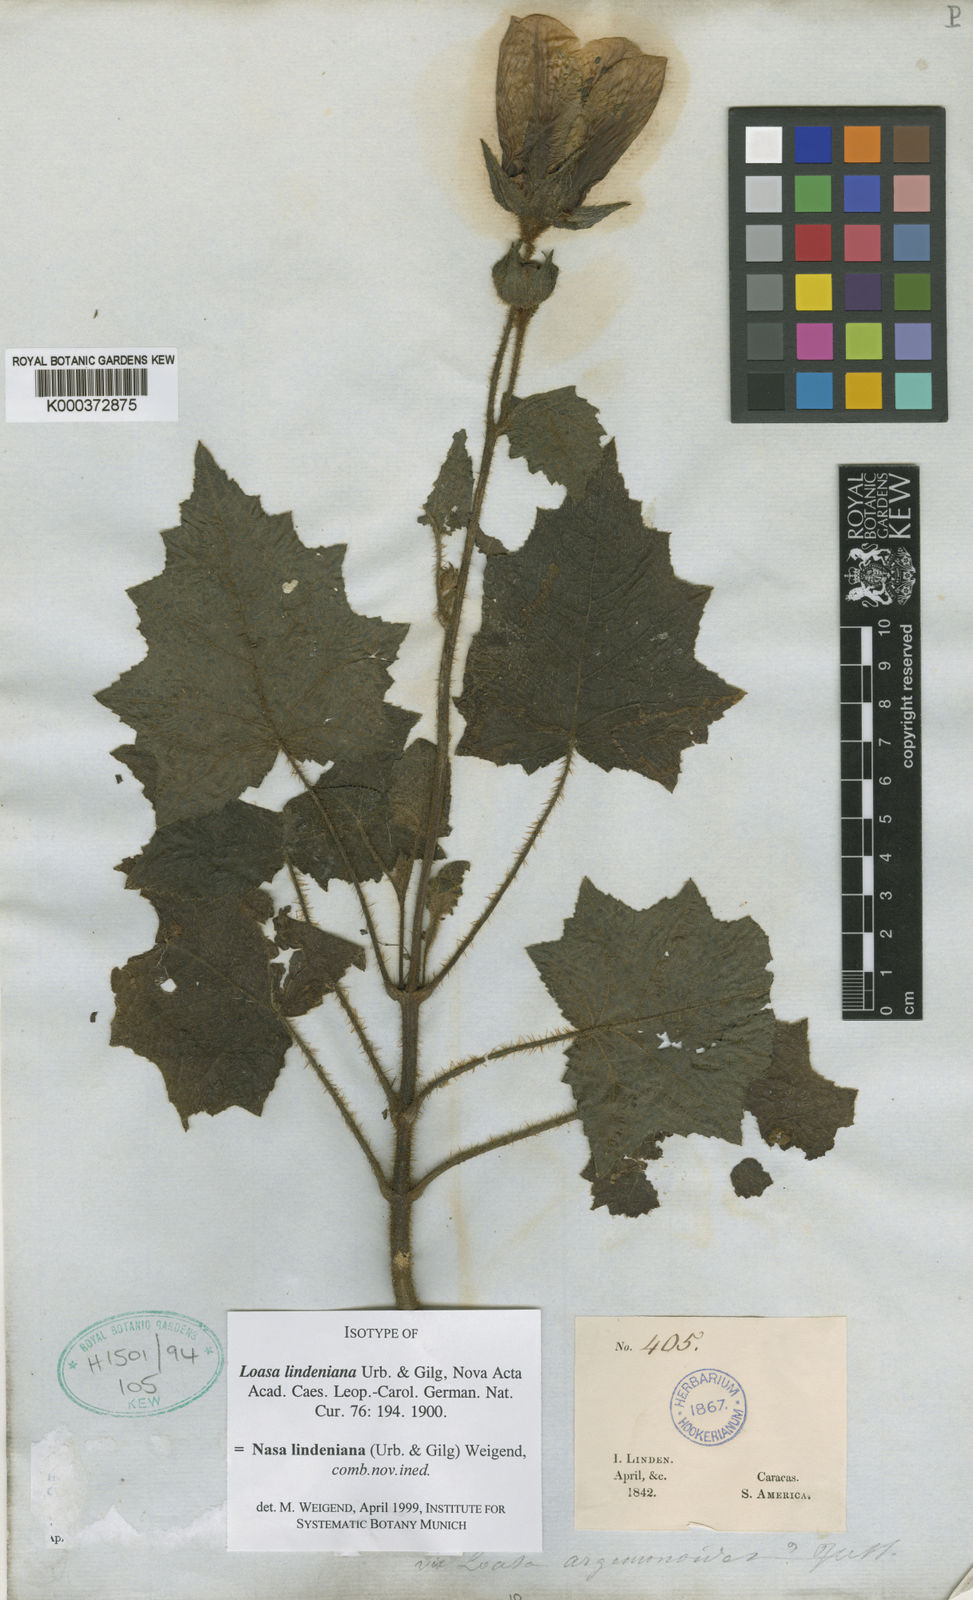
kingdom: Plantae
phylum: Tracheophyta
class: Magnoliopsida
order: Cornales
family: Loasaceae
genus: Nasa
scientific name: Nasa lindeniana
